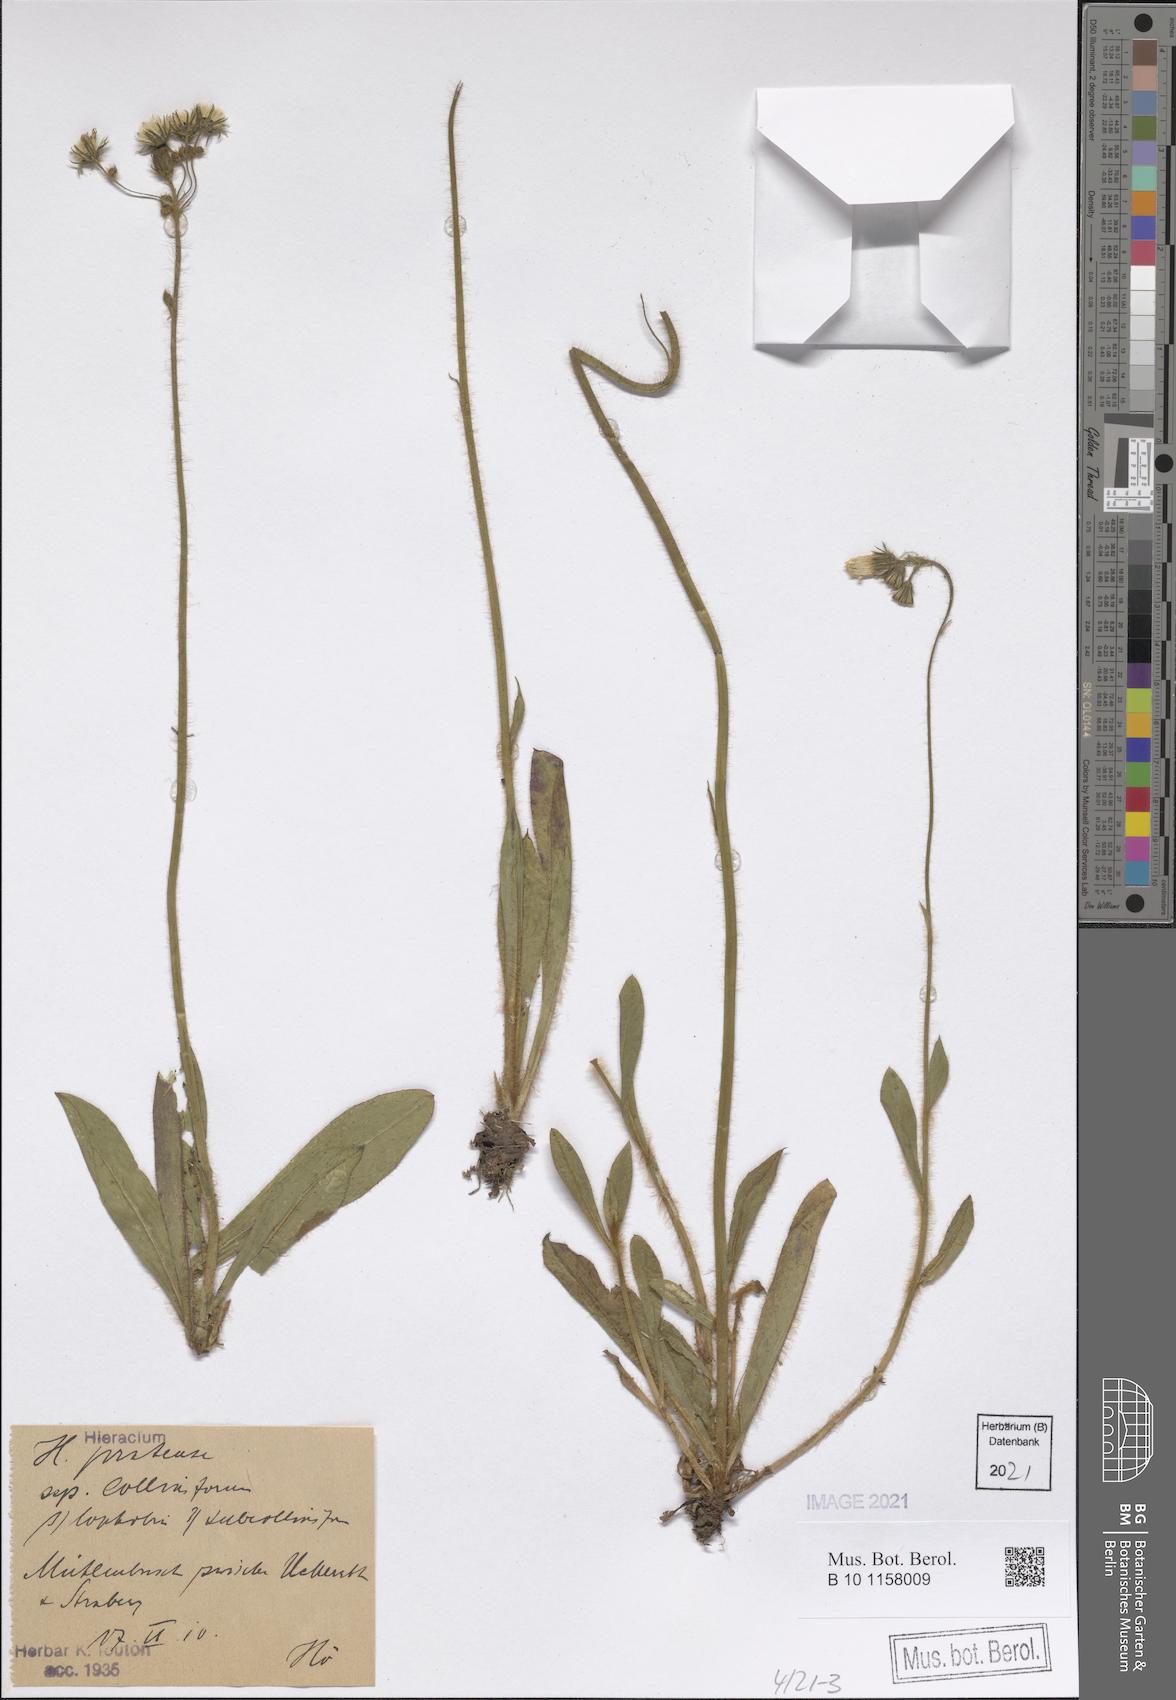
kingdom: Plantae
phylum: Tracheophyta
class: Magnoliopsida
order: Asterales
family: Asteraceae
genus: Pilosella
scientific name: Pilosella caespitosa
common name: Yellow fox-and-cubs
